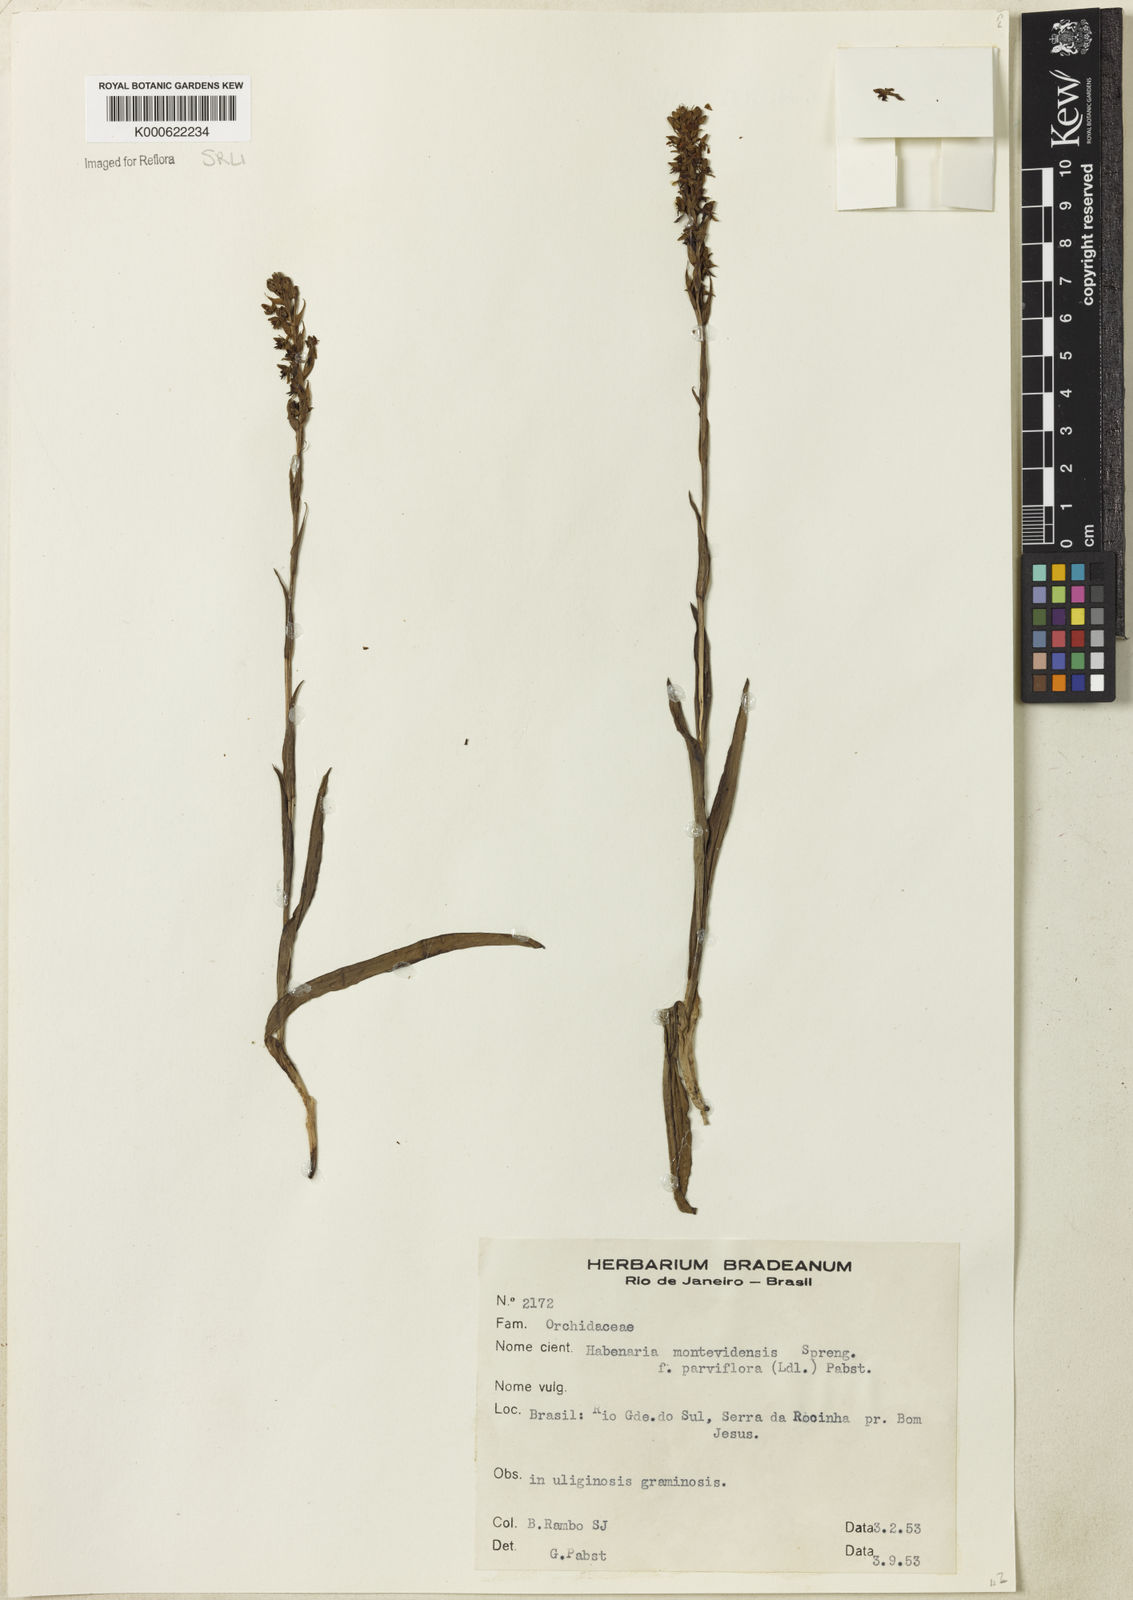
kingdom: Plantae
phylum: Tracheophyta
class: Liliopsida
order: Asparagales
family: Orchidaceae
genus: Habenaria
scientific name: Habenaria parviflora
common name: Small flowered habenaria
